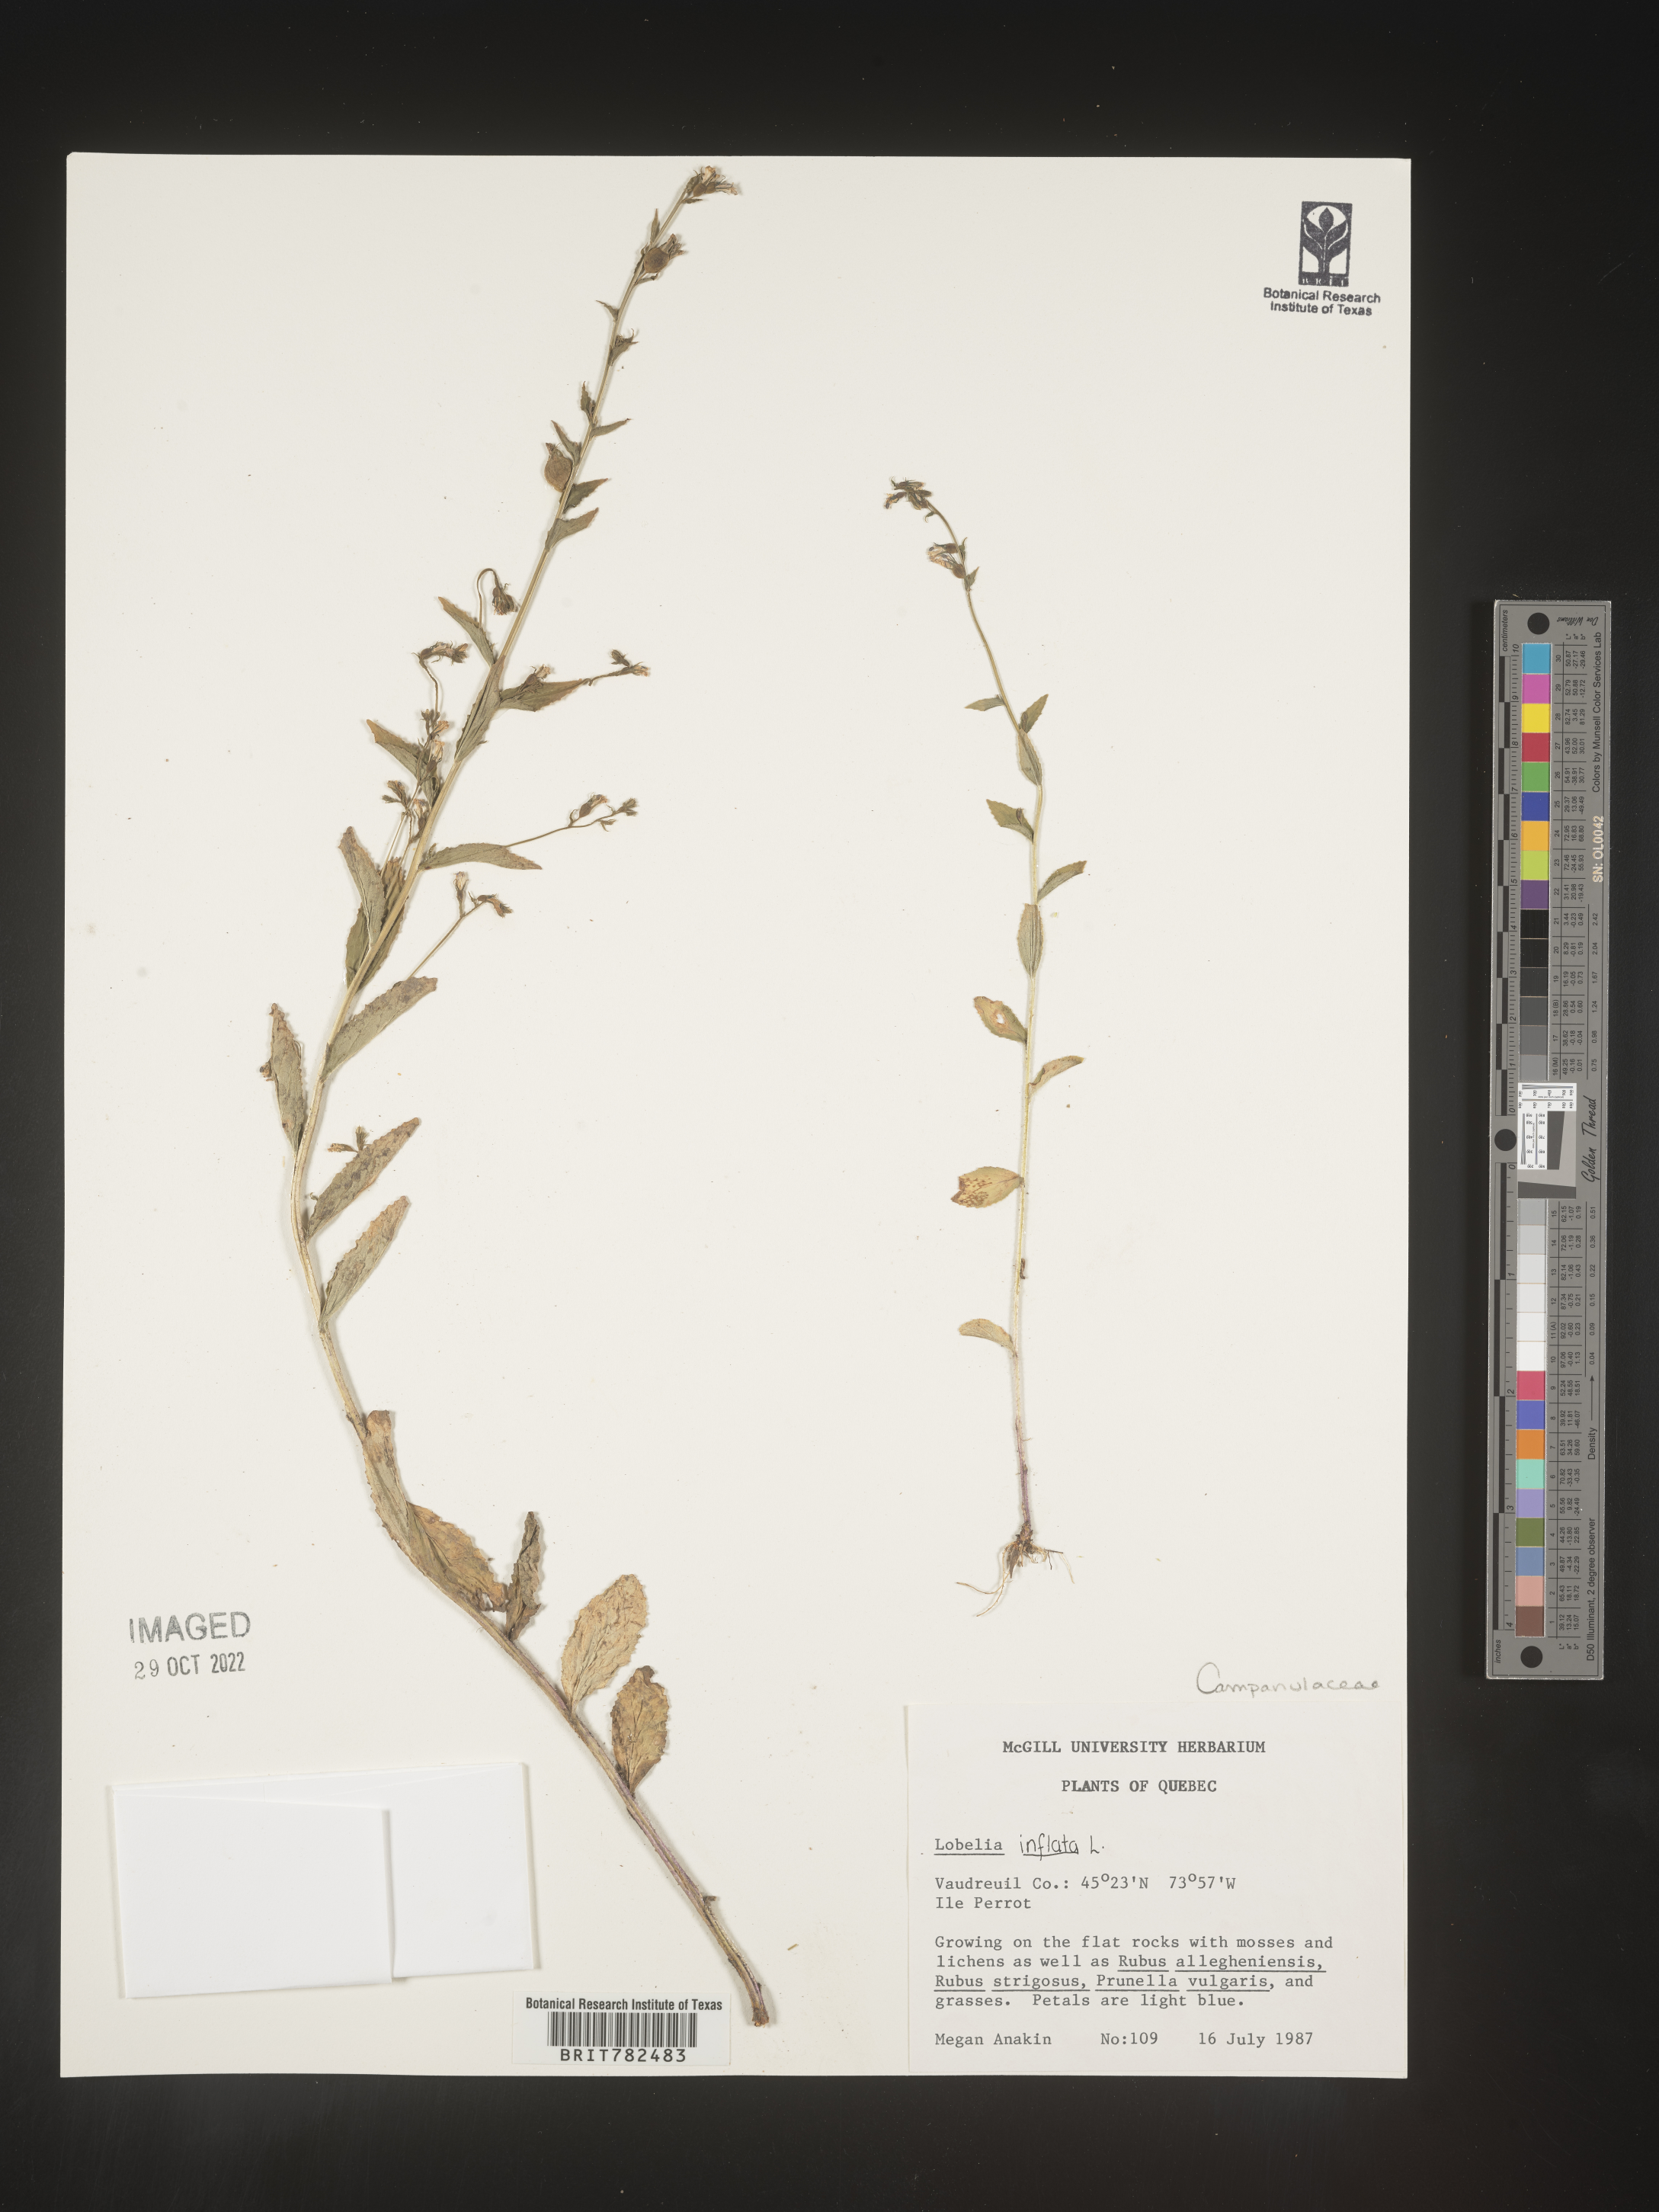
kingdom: Plantae
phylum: Tracheophyta
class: Magnoliopsida
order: Asterales
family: Campanulaceae
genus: Lobelia
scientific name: Lobelia inflata
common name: Indian tobacco
